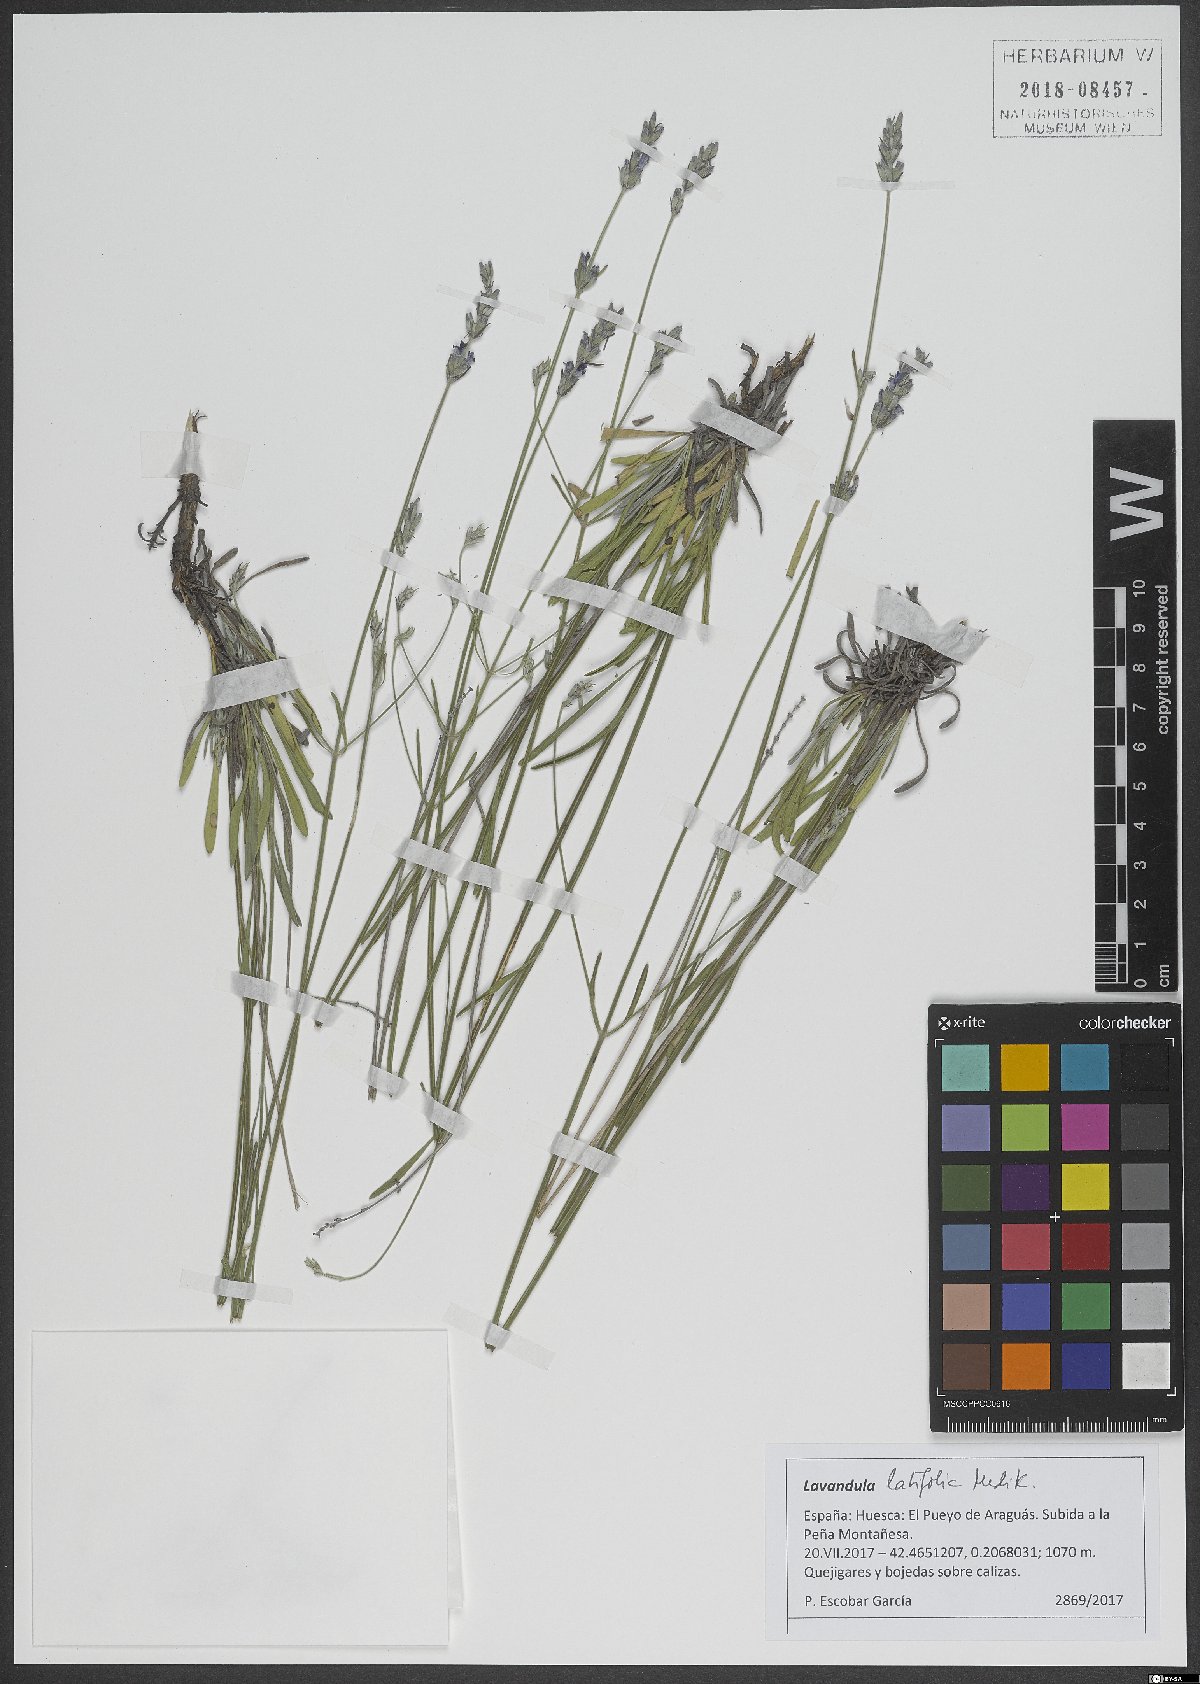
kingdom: Plantae
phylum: Tracheophyta
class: Magnoliopsida
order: Lamiales
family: Lamiaceae
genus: Lavandula
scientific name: Lavandula latifolia
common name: Spike lavendar
